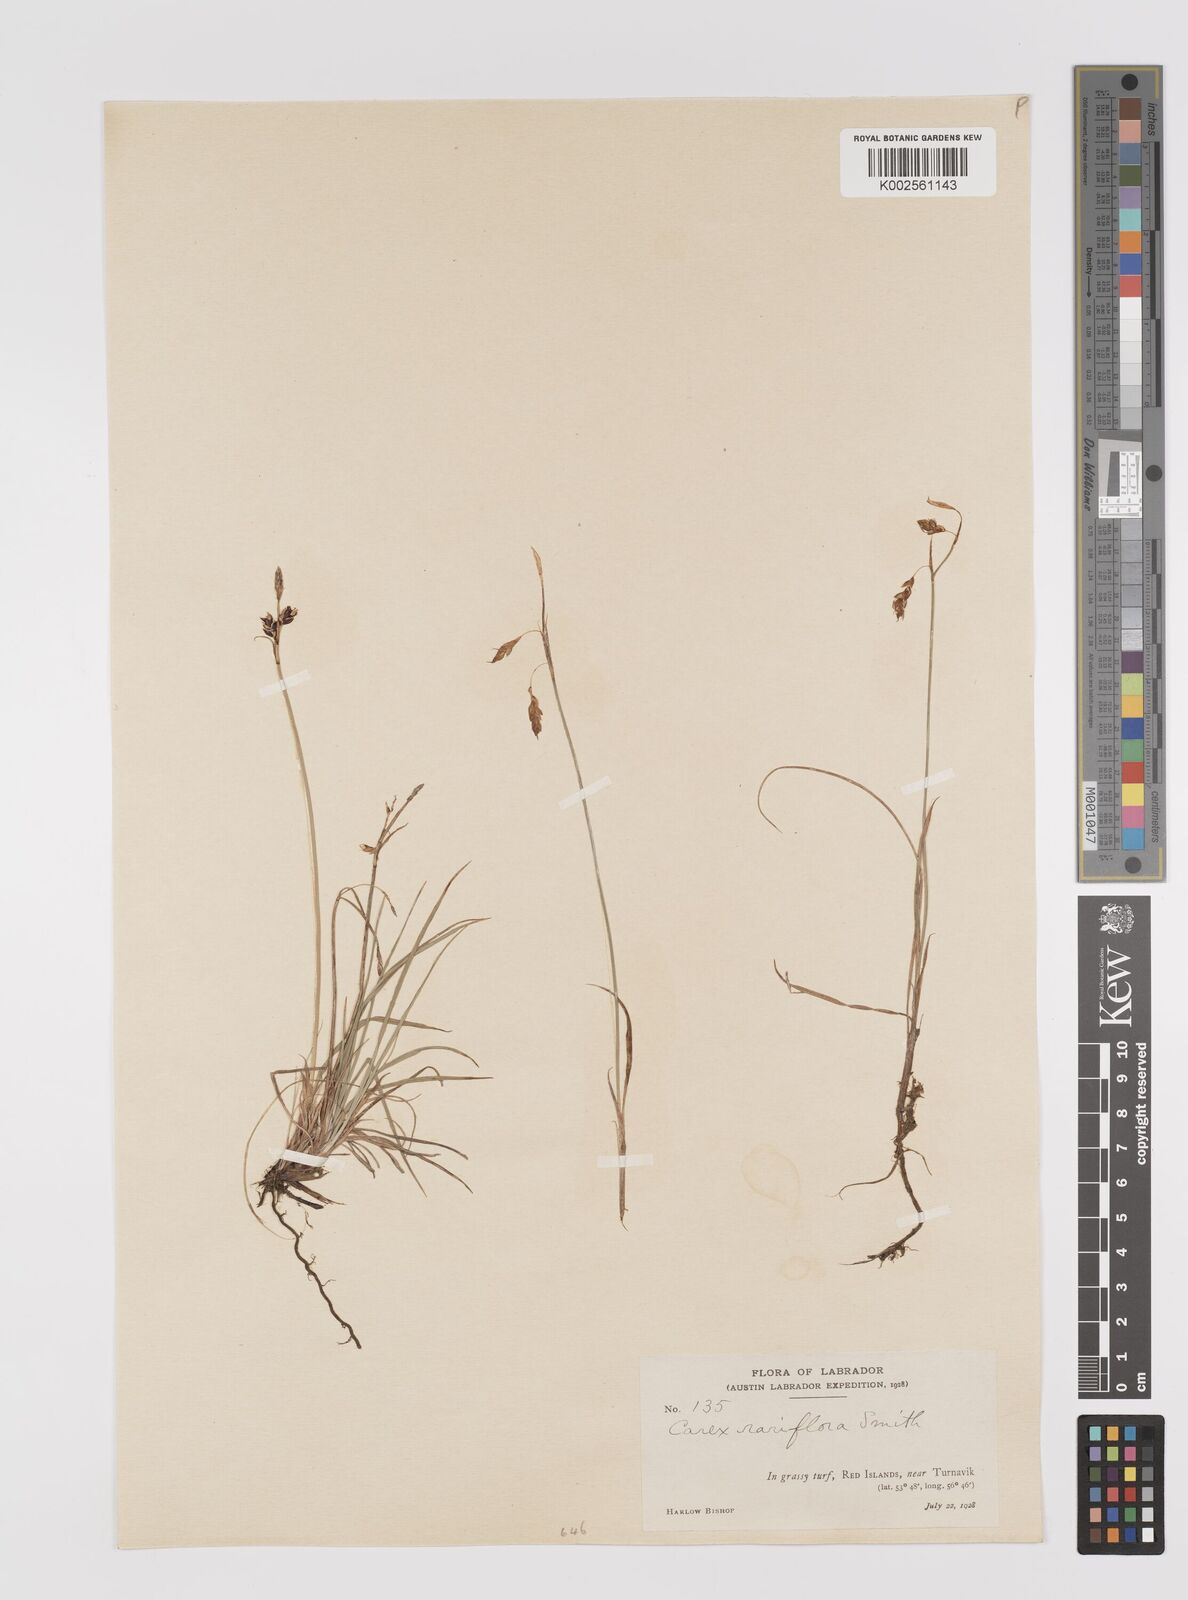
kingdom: Plantae
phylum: Tracheophyta
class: Liliopsida
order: Poales
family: Cyperaceae
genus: Carex
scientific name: Carex rariflora
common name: Loose-flowered alpine sedge
